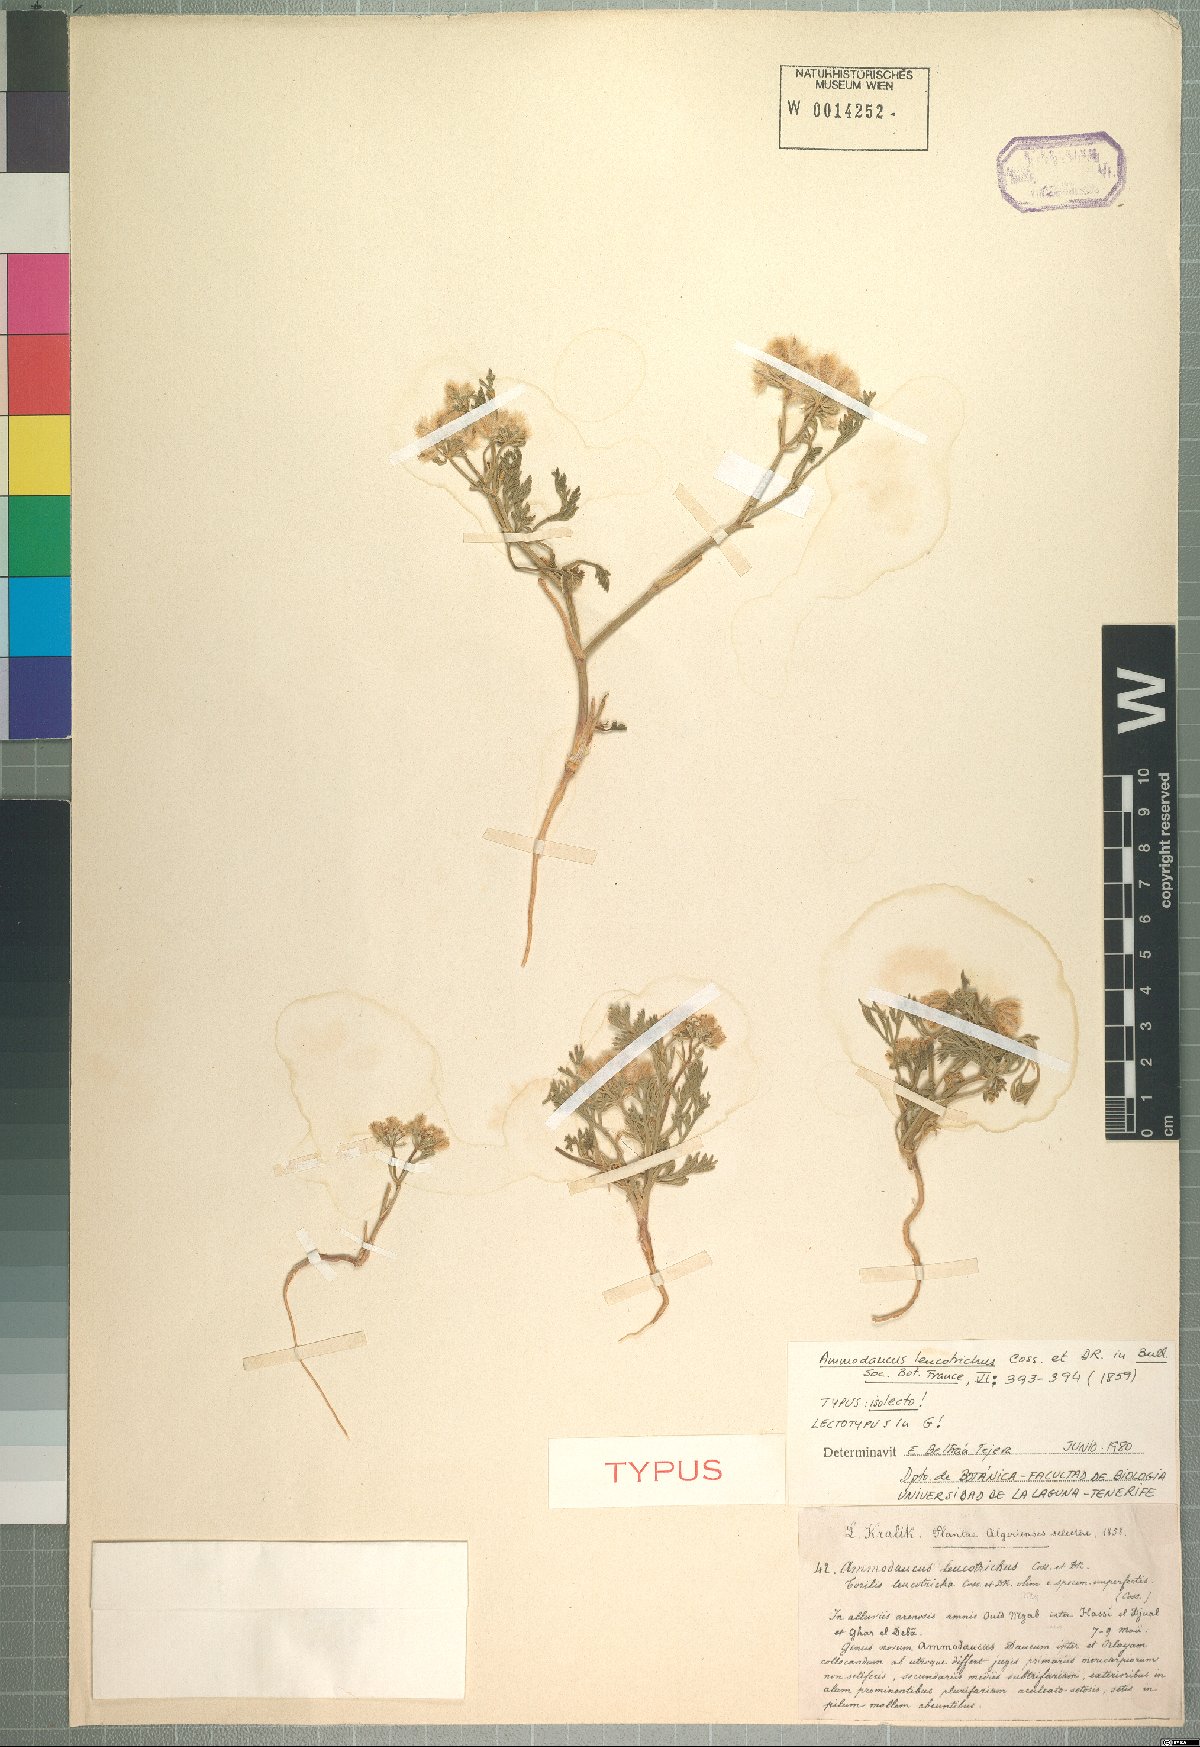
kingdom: Plantae
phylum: Tracheophyta
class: Magnoliopsida
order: Apiales
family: Apiaceae
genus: Ammodaucus
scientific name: Ammodaucus leucotrichus
